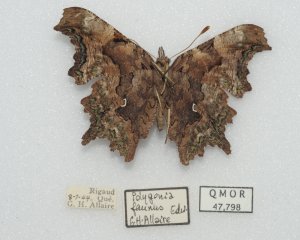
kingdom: Animalia
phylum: Arthropoda
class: Insecta
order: Lepidoptera
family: Nymphalidae
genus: Polygonia
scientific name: Polygonia faunus
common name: Green Comma
